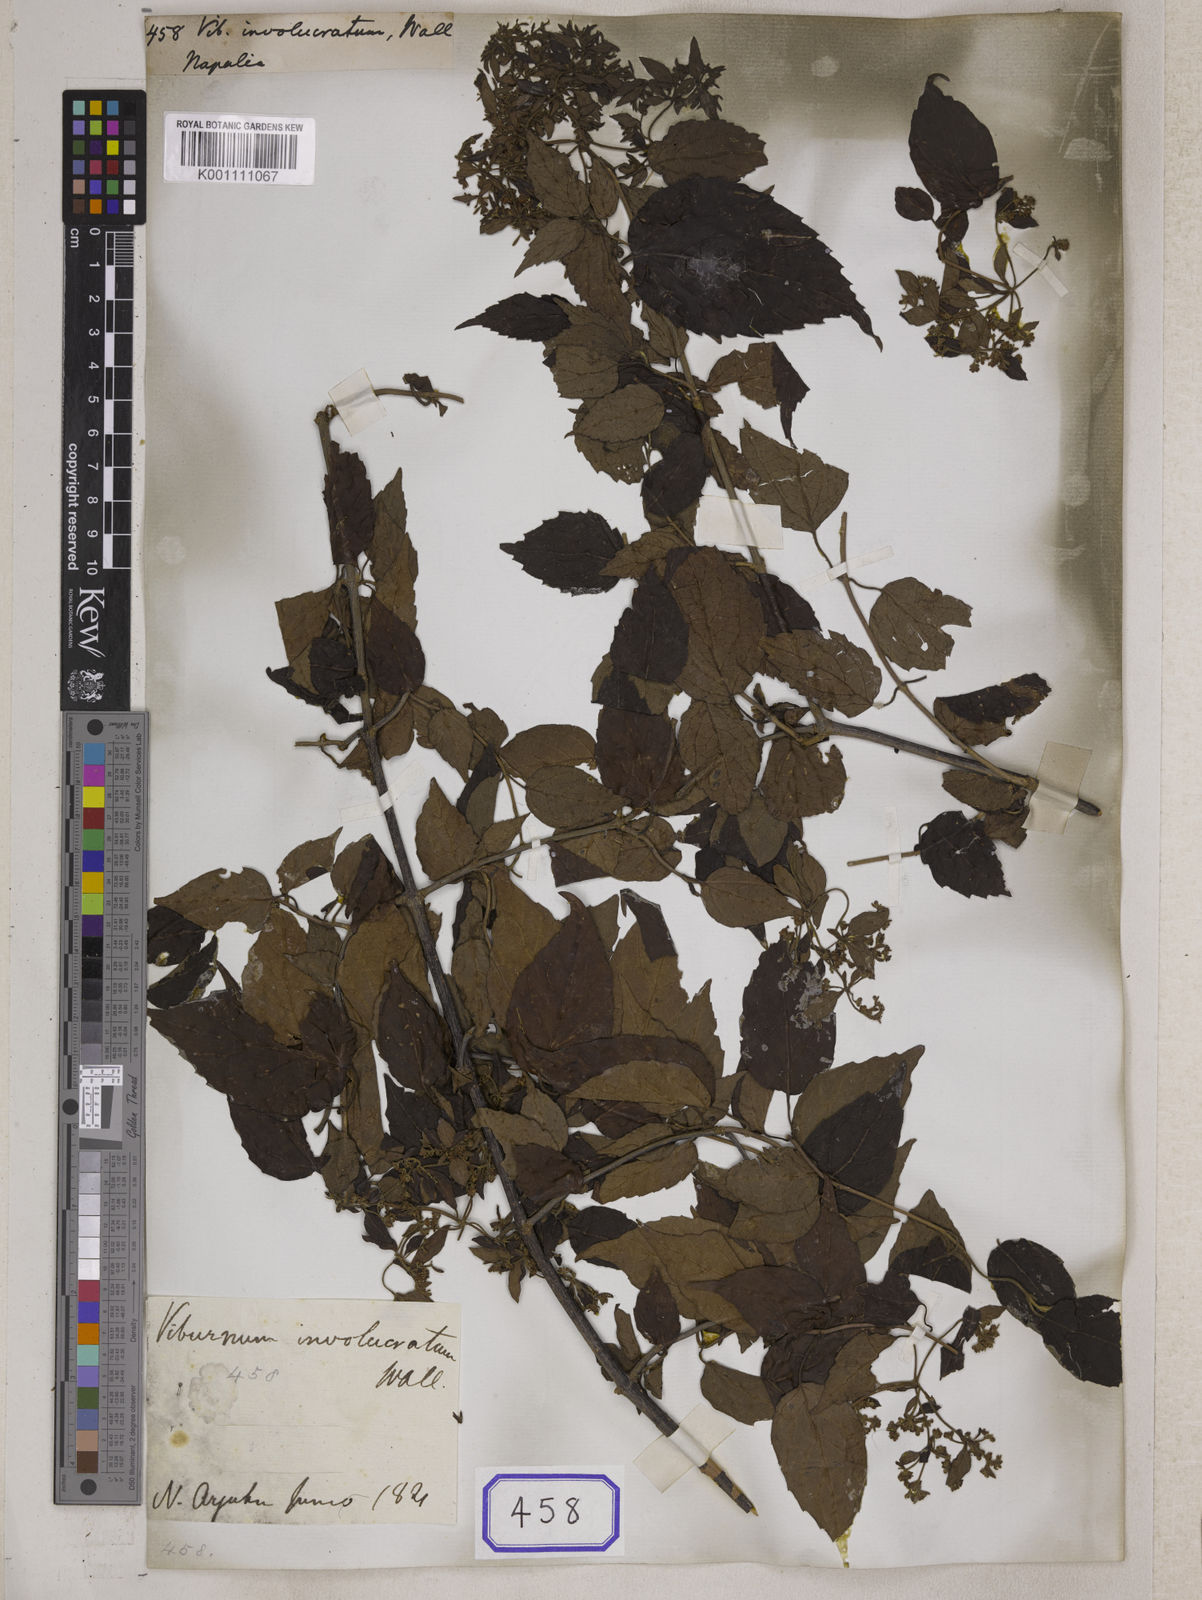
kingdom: Plantae
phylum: Tracheophyta
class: Magnoliopsida
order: Dipsacales
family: Viburnaceae
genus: Viburnum
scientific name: Viburnum
